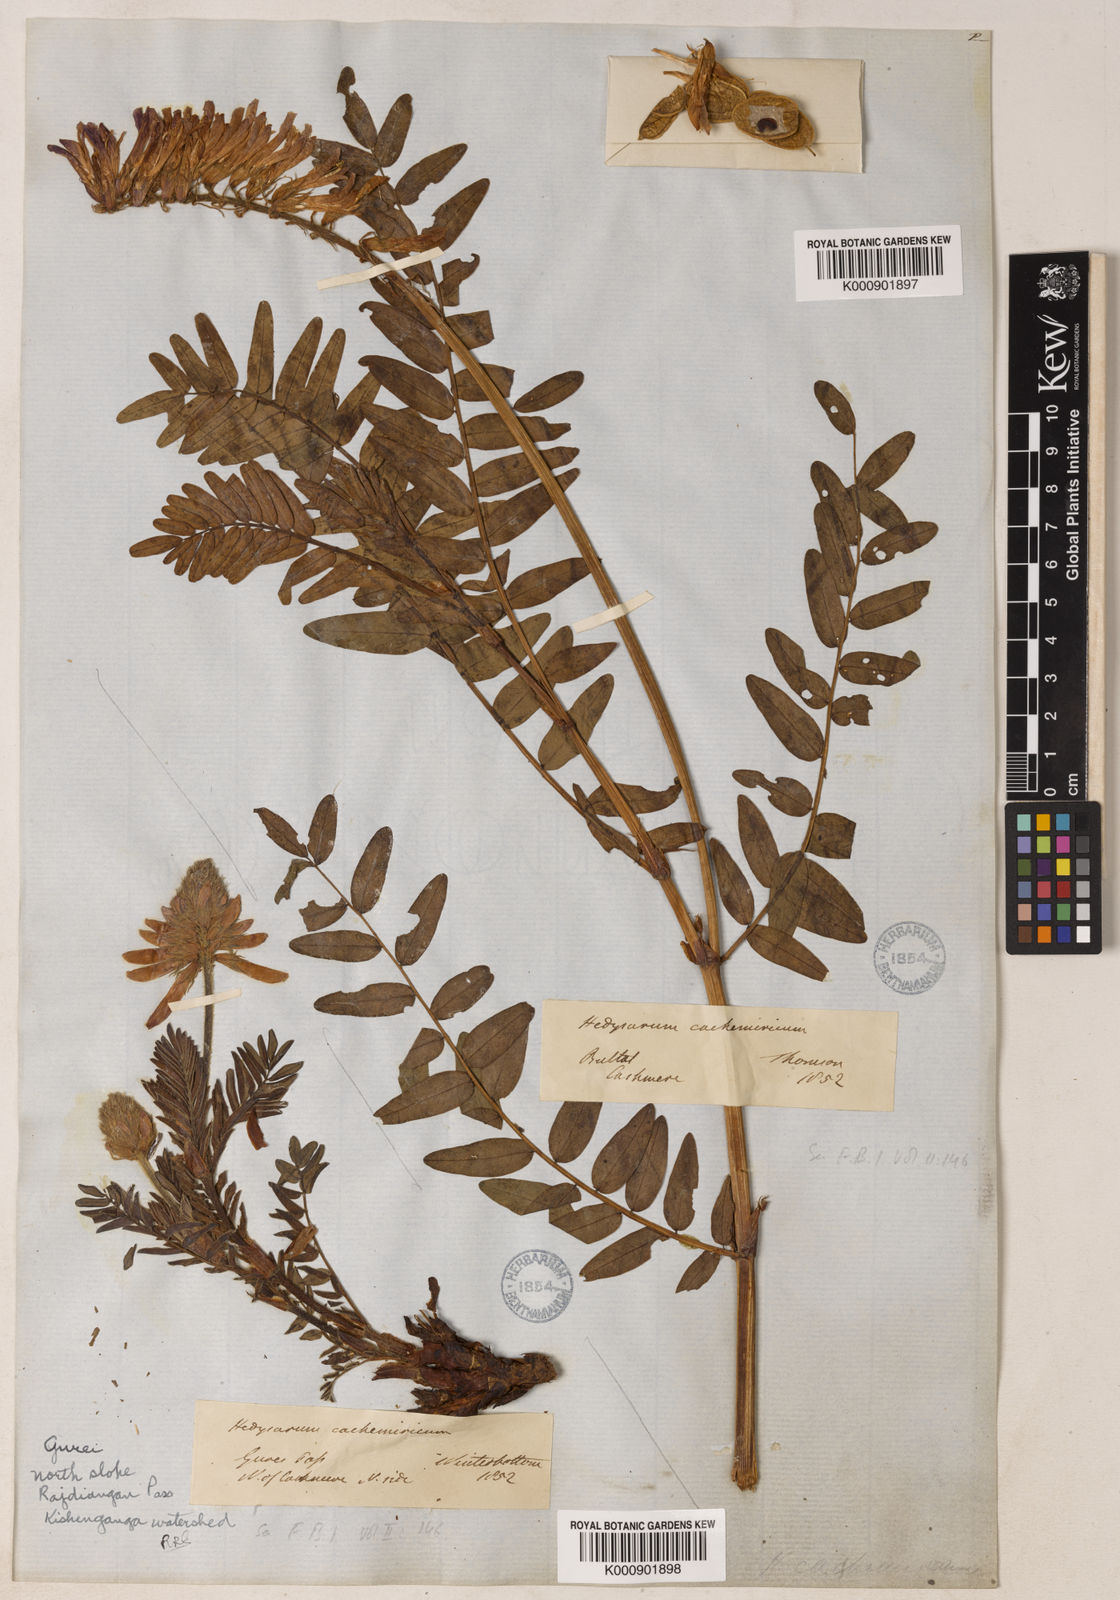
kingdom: Plantae
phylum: Tracheophyta
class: Magnoliopsida
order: Fabales
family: Fabaceae
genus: Hedysarum
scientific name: Hedysarum cachemirianum
